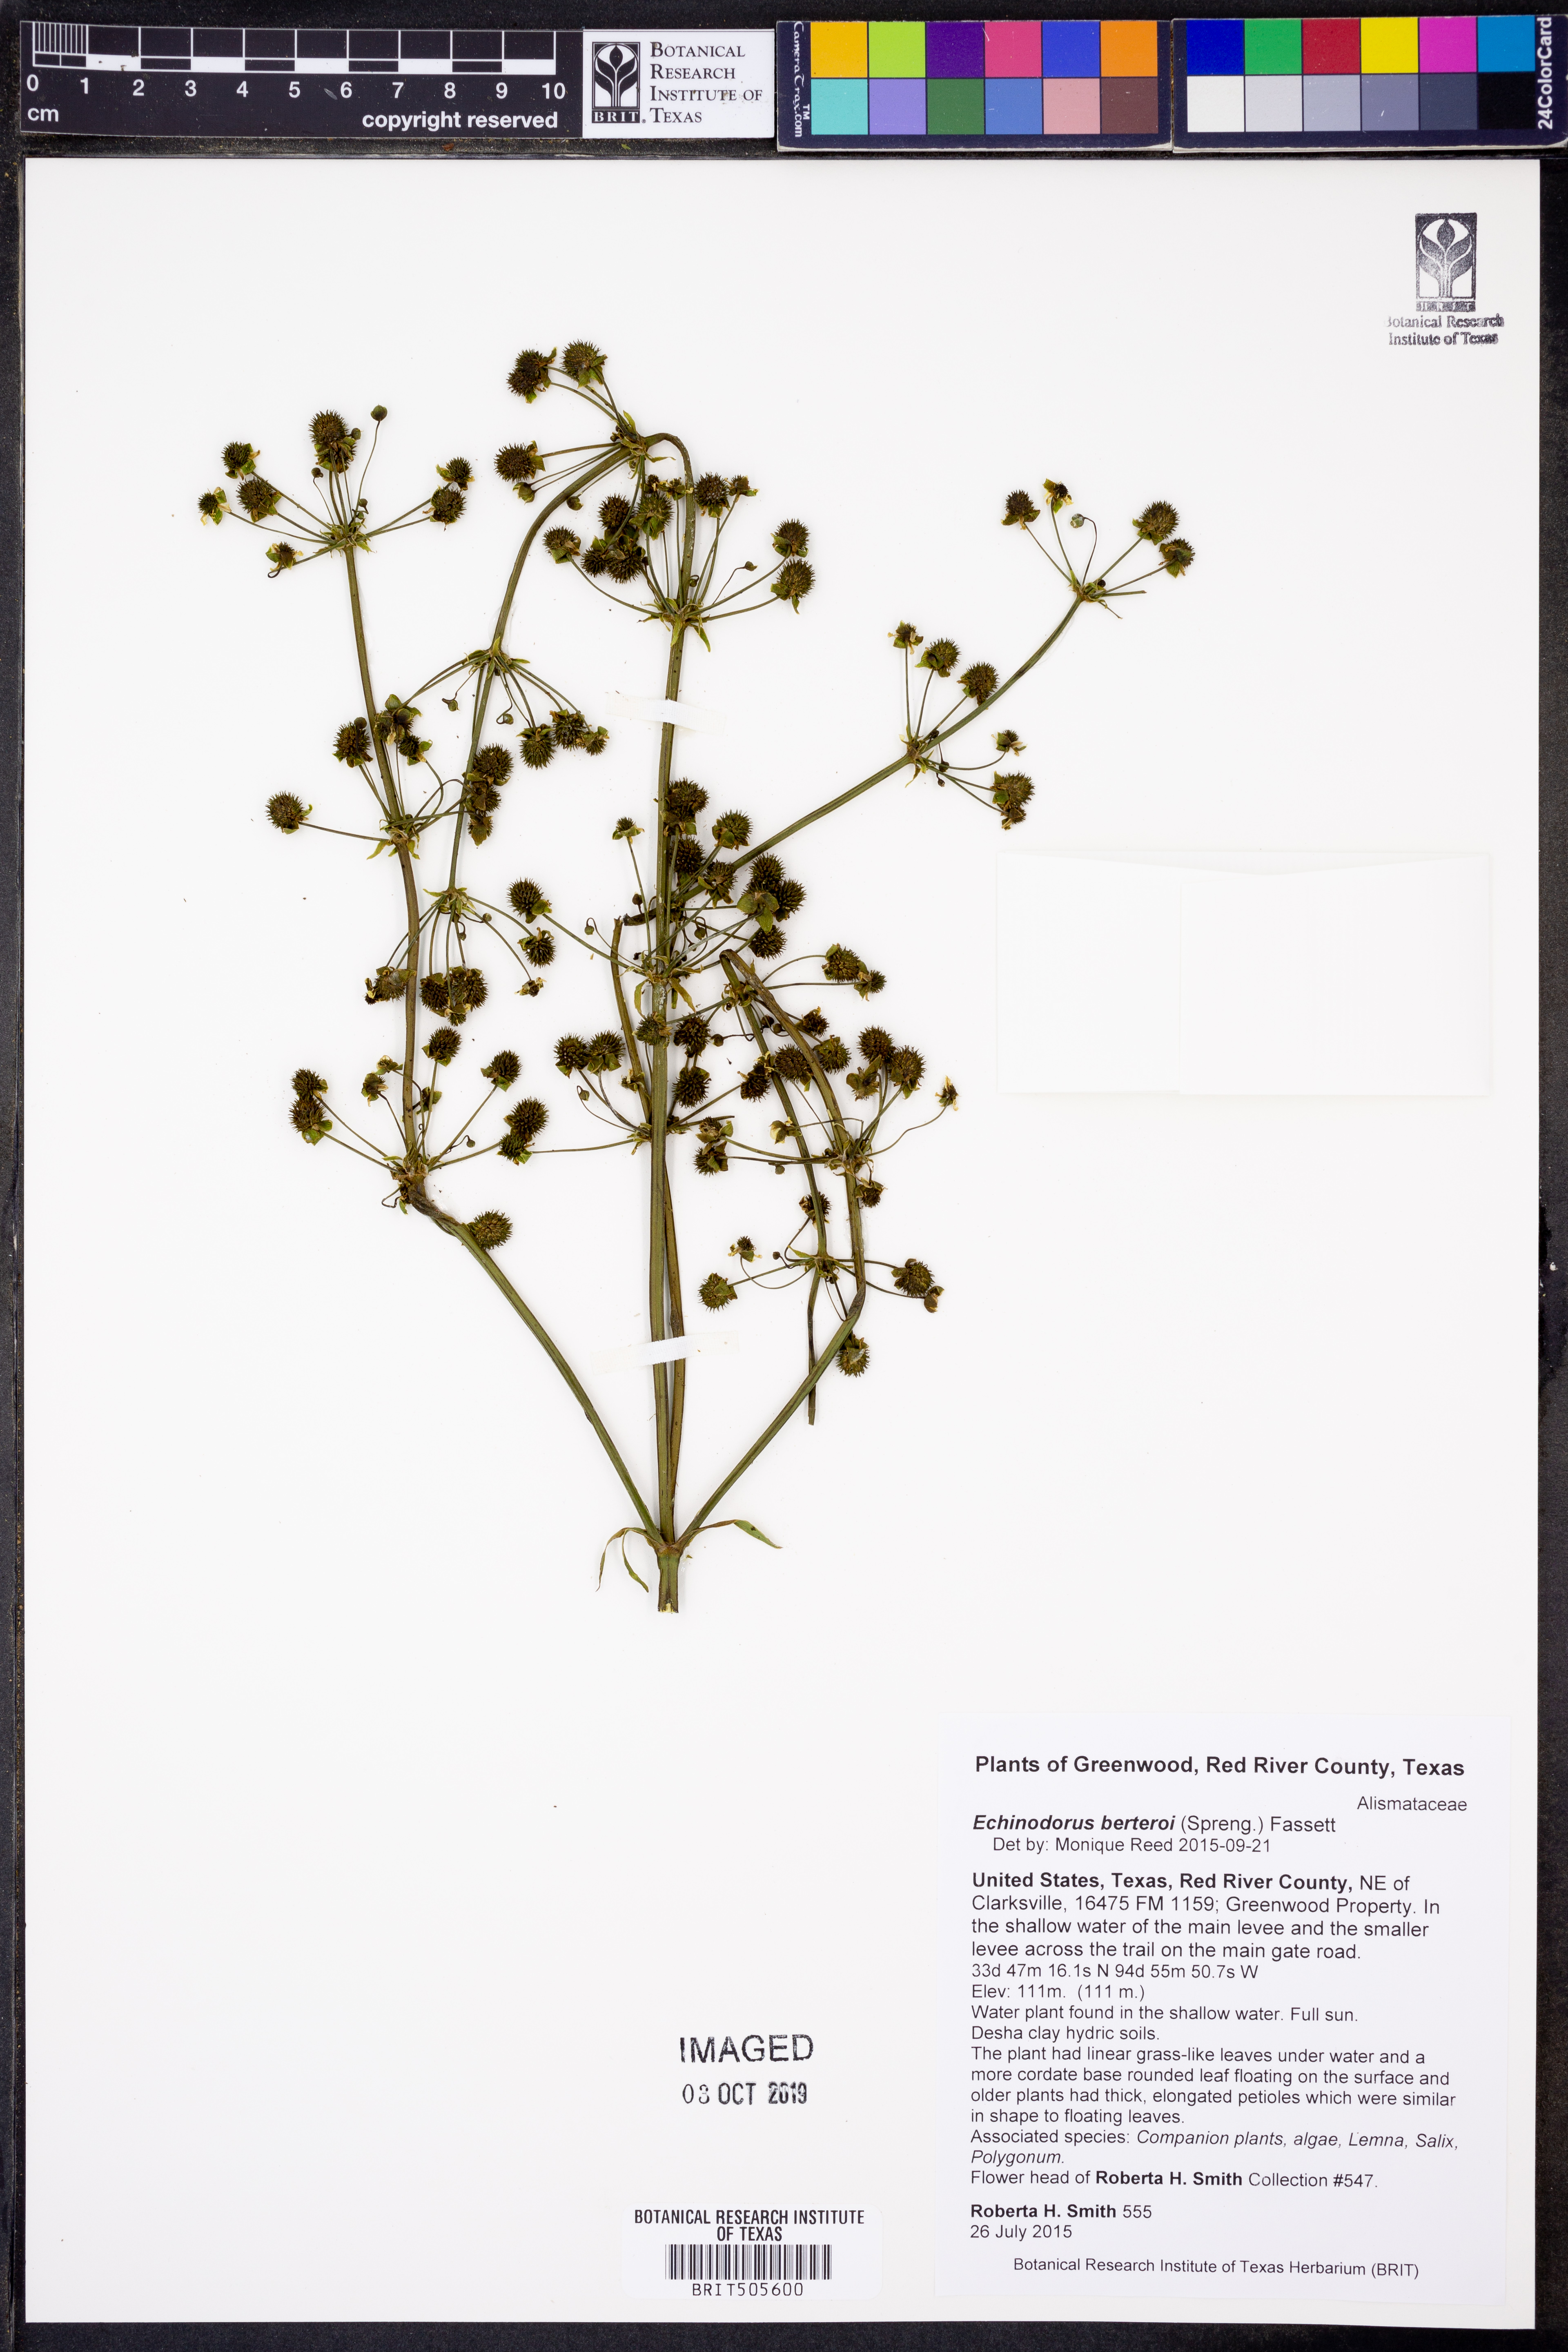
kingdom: Plantae
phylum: Tracheophyta
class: Liliopsida
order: Alismatales
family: Alismataceae
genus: Echinodorus
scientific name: Echinodorus berteroi
